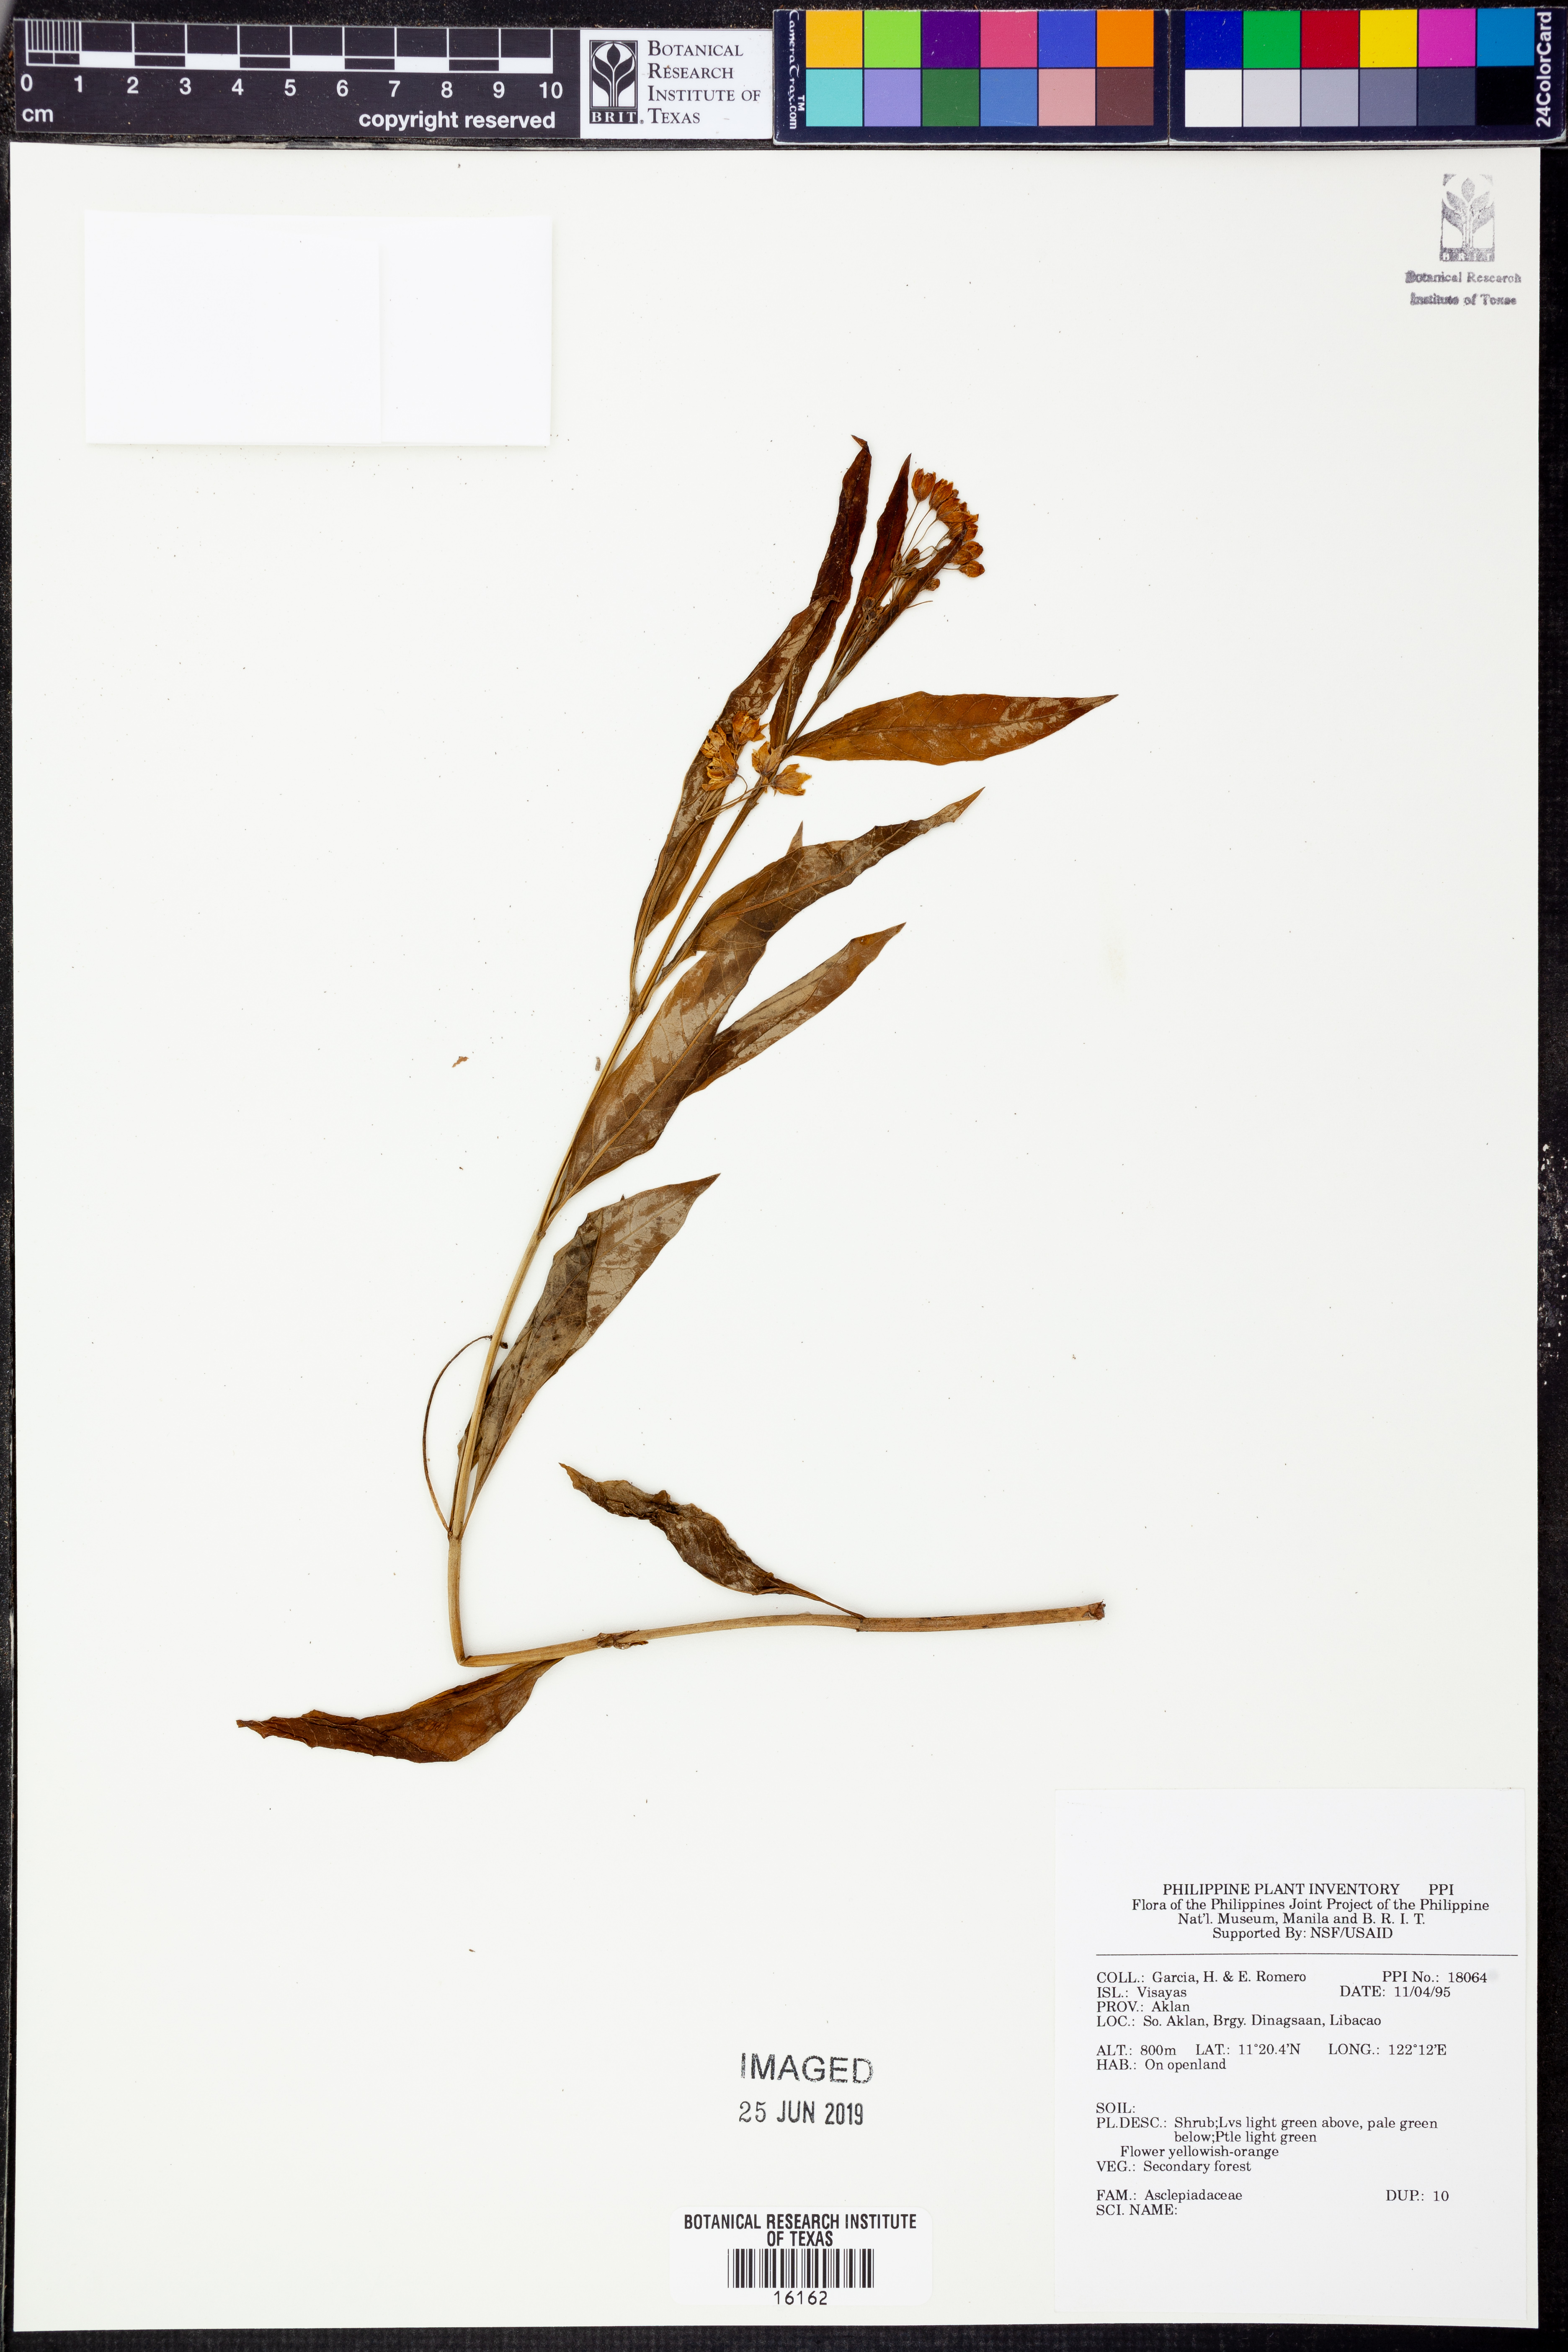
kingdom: Plantae
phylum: Tracheophyta
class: Magnoliopsida
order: Gentianales
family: Apocynaceae
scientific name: Apocynaceae
